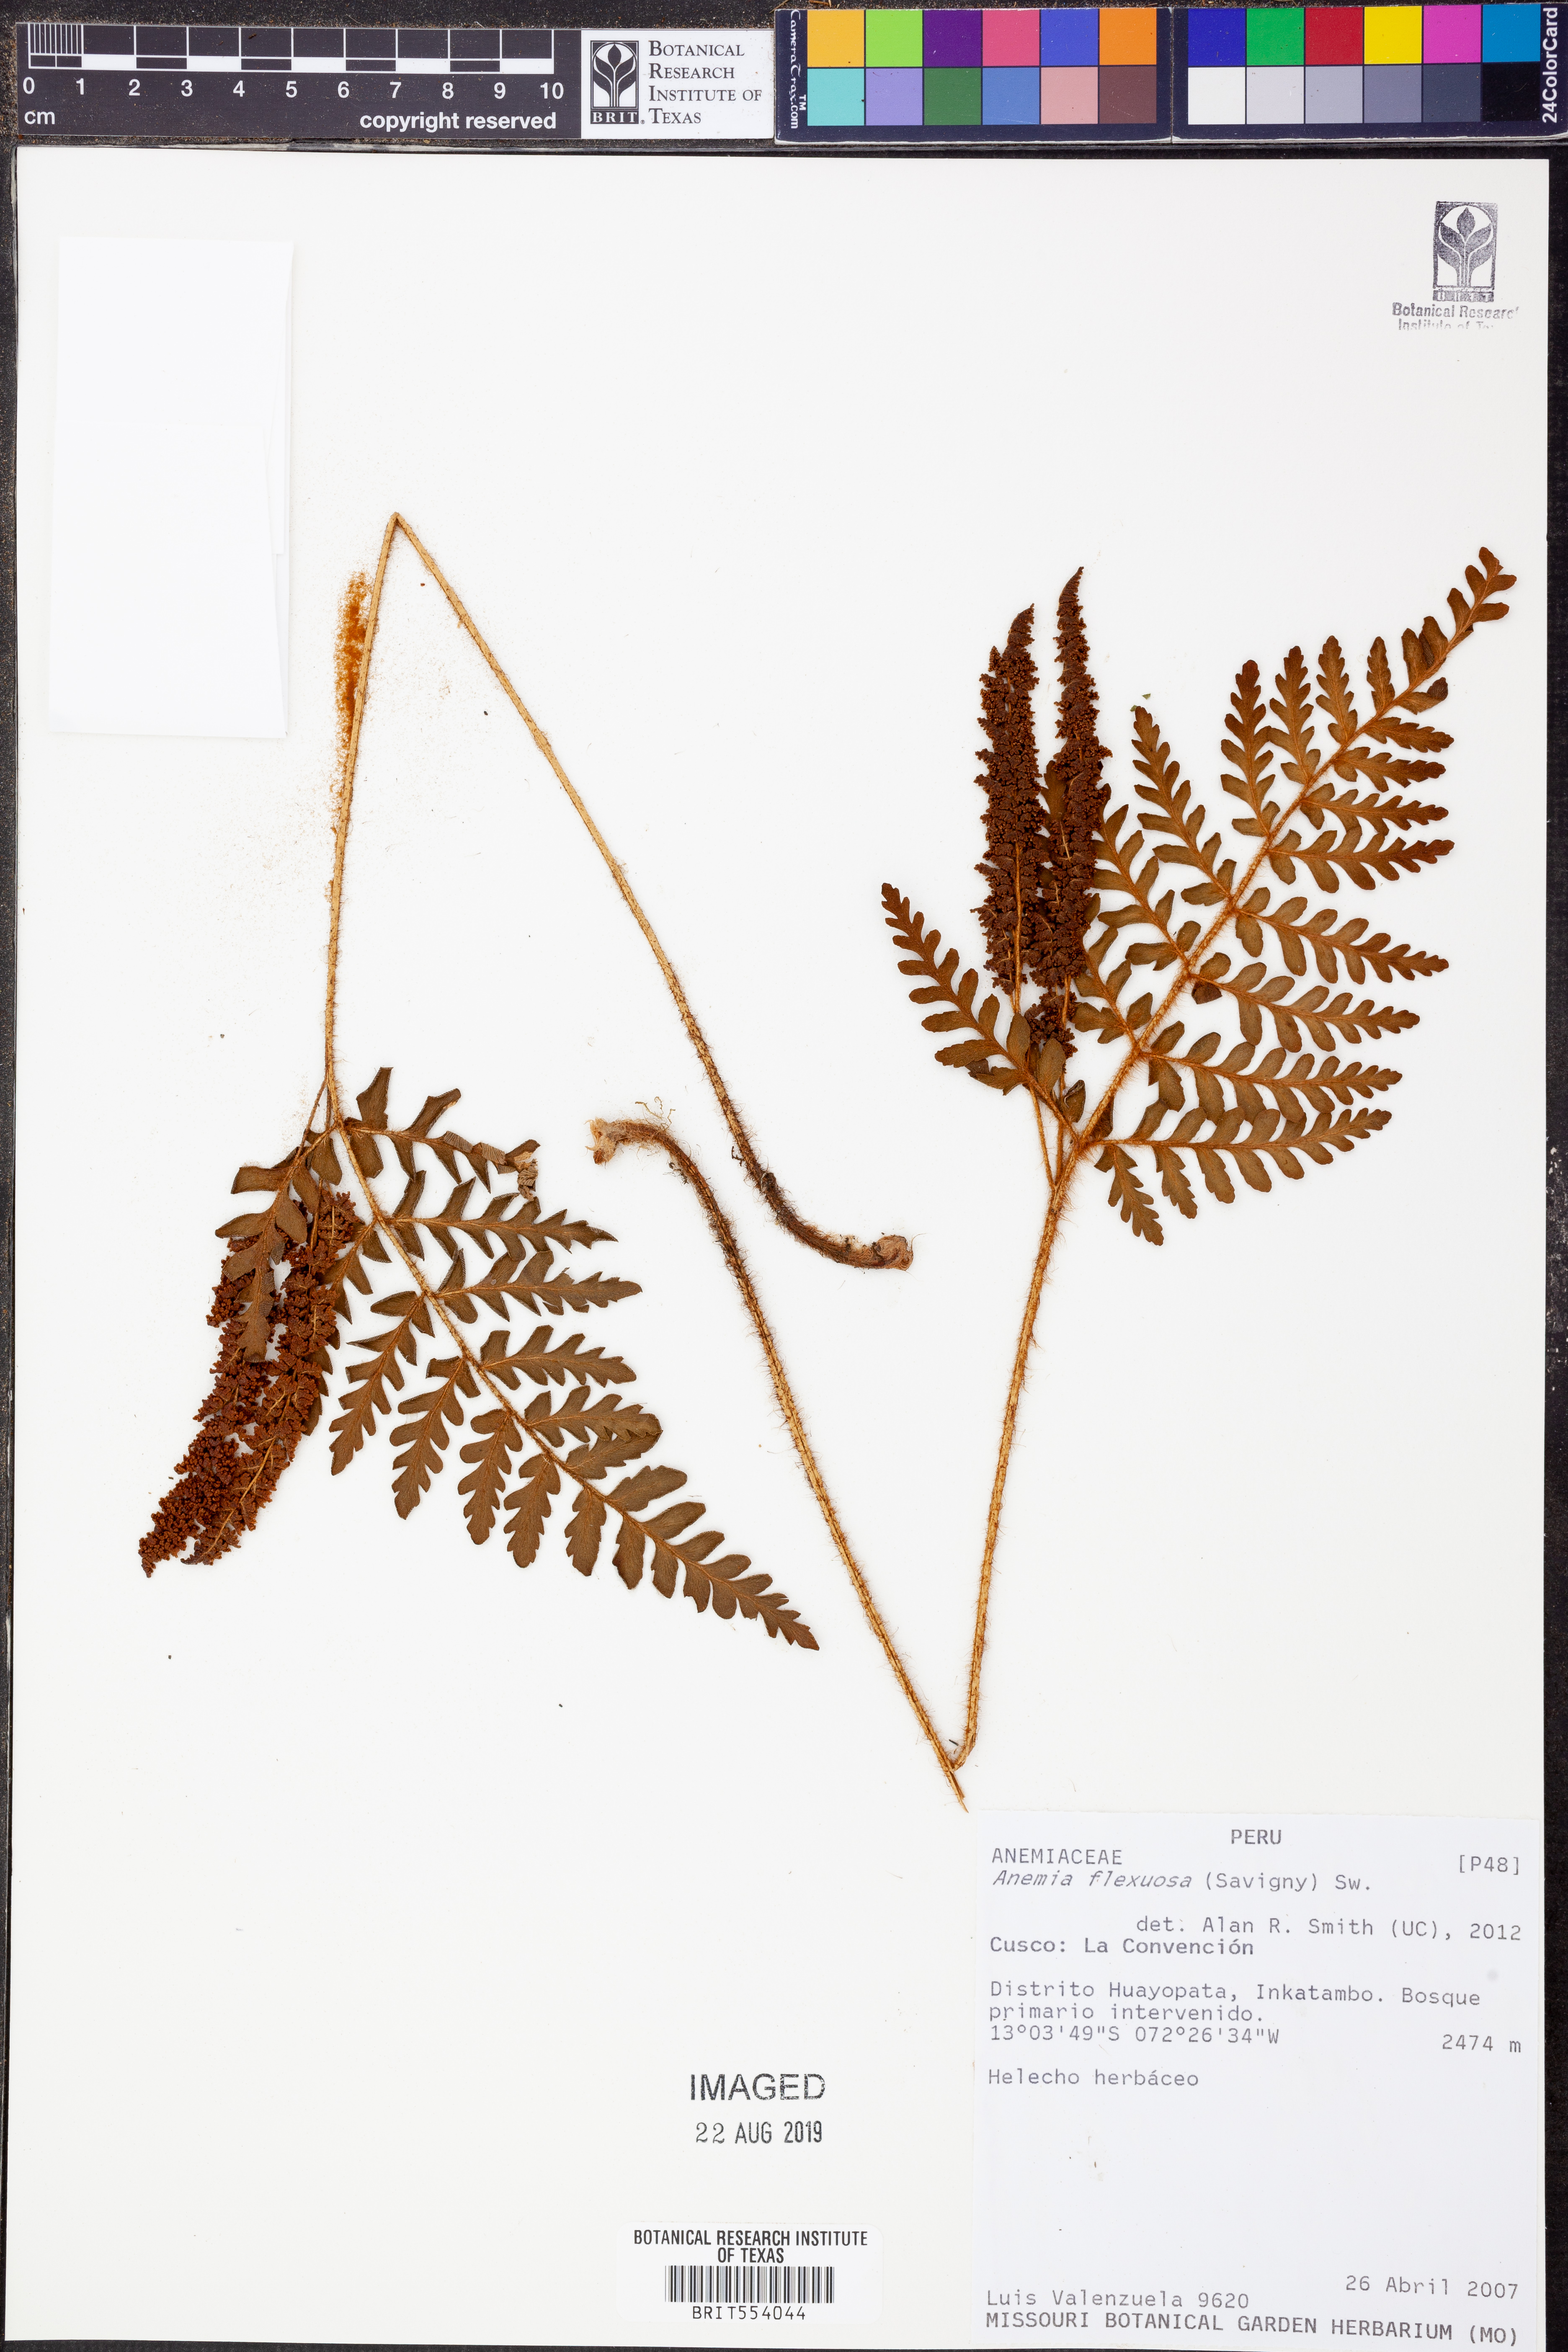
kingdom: Plantae
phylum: Tracheophyta
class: Polypodiopsida
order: Schizaeales
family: Anemiaceae
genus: Anemia
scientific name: Anemia flexuosa
